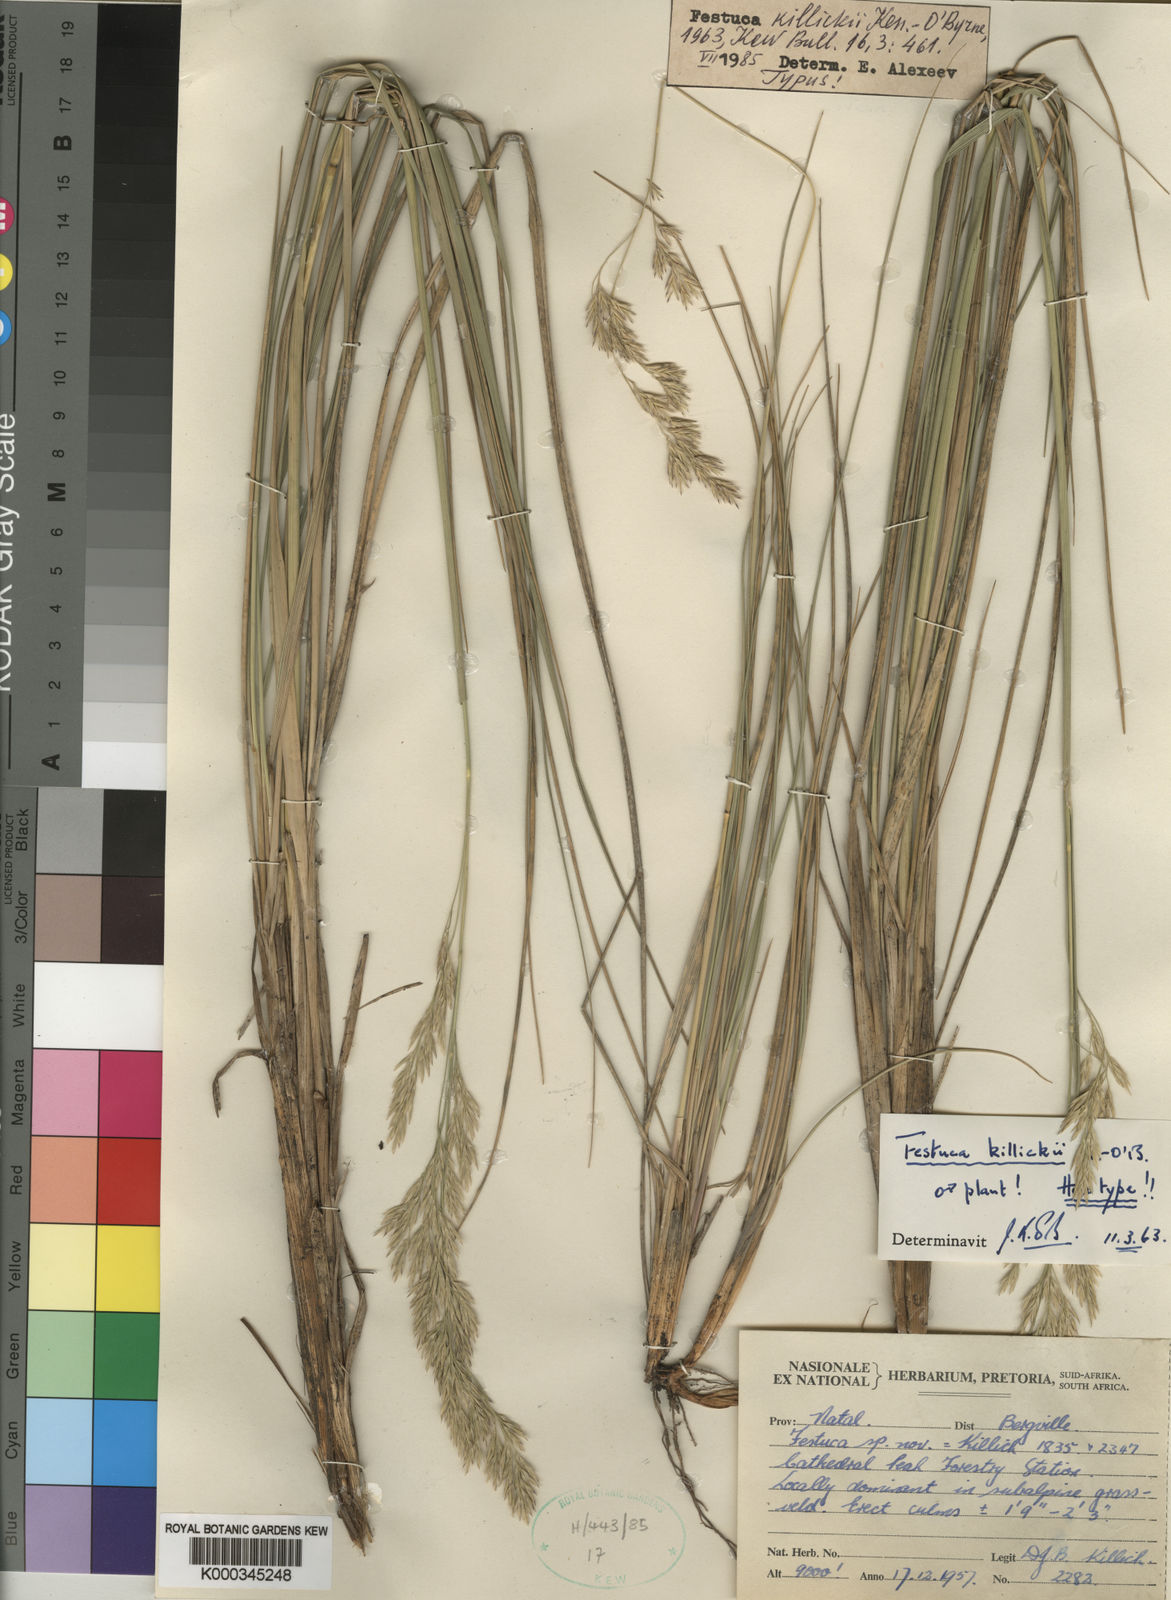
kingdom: Plantae
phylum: Tracheophyta
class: Liliopsida
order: Poales
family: Poaceae
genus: Festuca
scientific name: Festuca killickii
